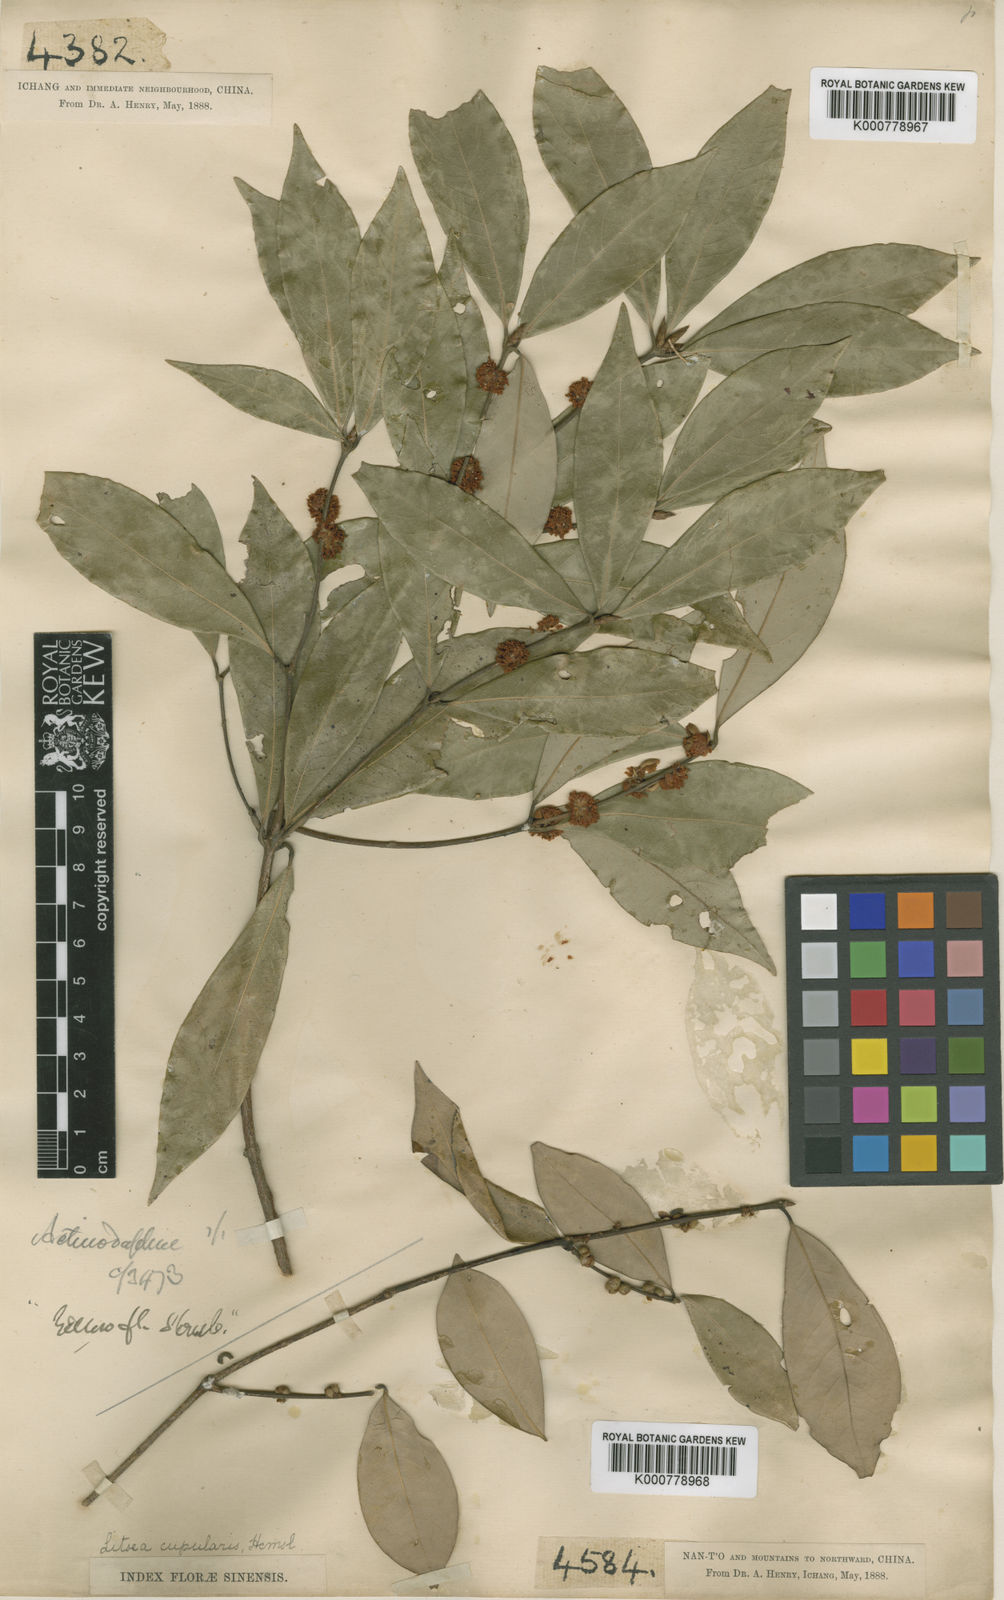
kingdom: Plantae
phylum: Tracheophyta
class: Magnoliopsida
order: Laurales
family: Lauraceae
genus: Actinodaphne
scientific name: Actinodaphne cupularis
